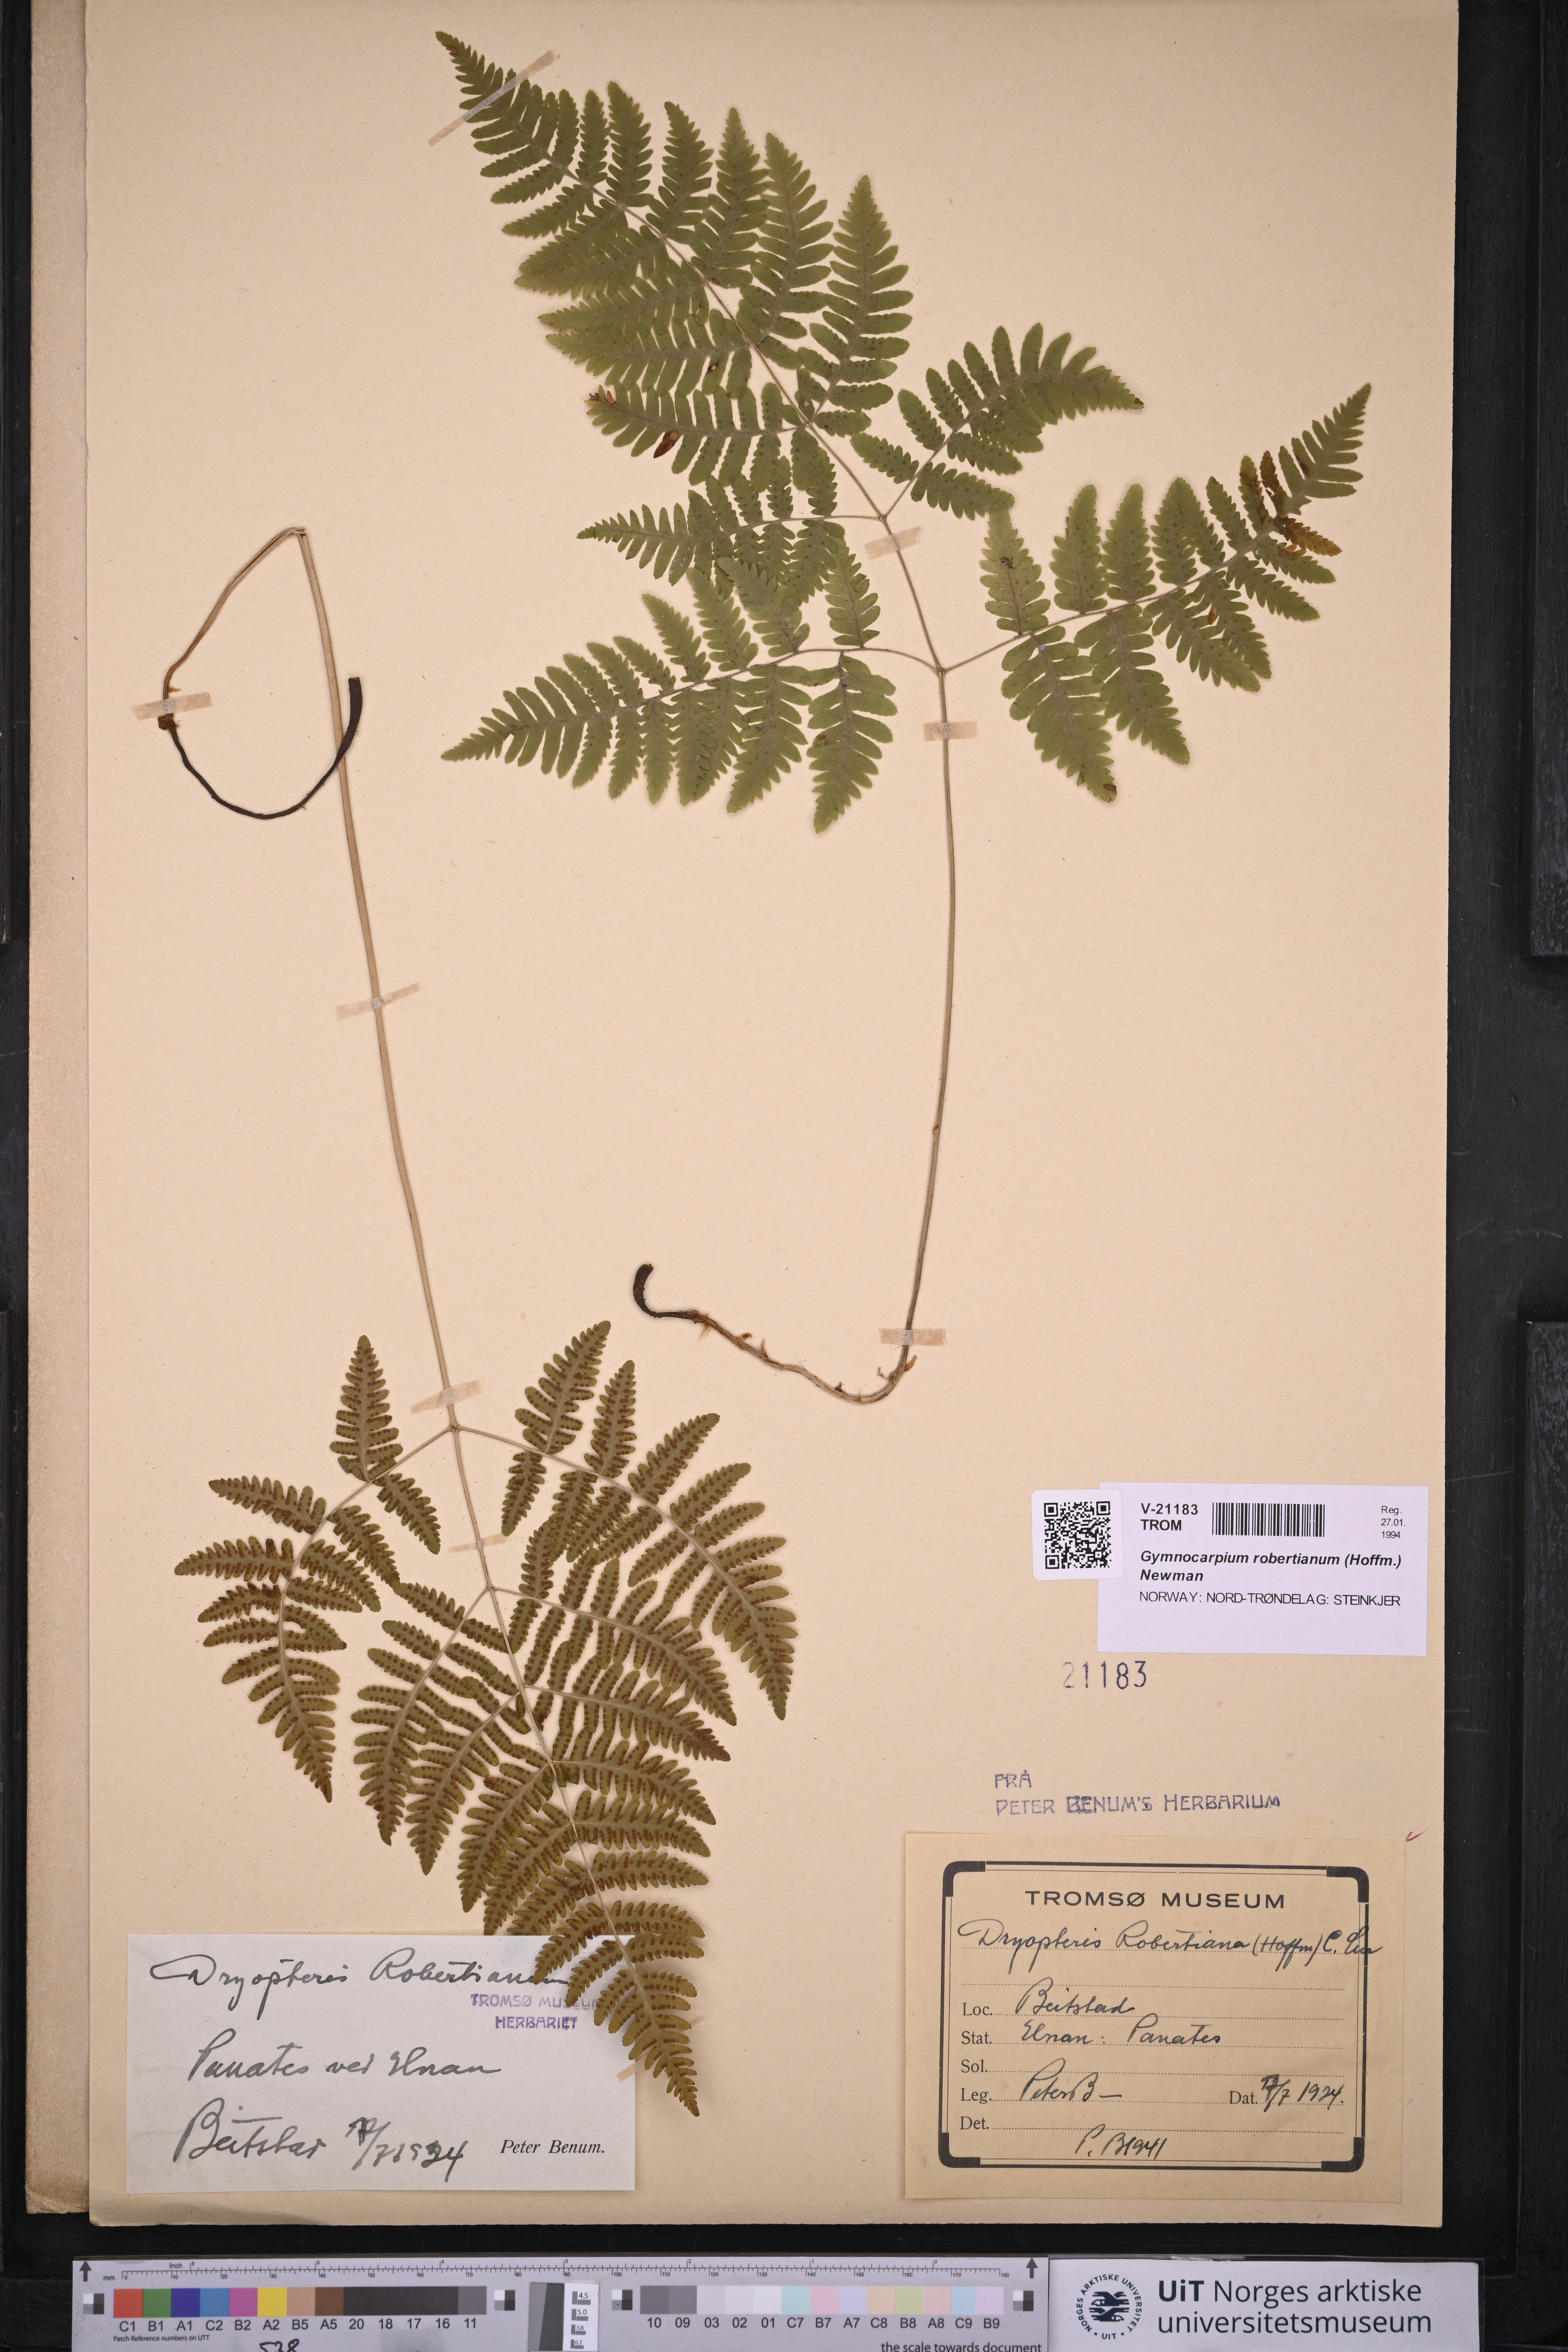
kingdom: Plantae
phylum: Tracheophyta
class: Polypodiopsida
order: Polypodiales
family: Cystopteridaceae
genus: Gymnocarpium
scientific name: Gymnocarpium robertianum
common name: Limestone fern
